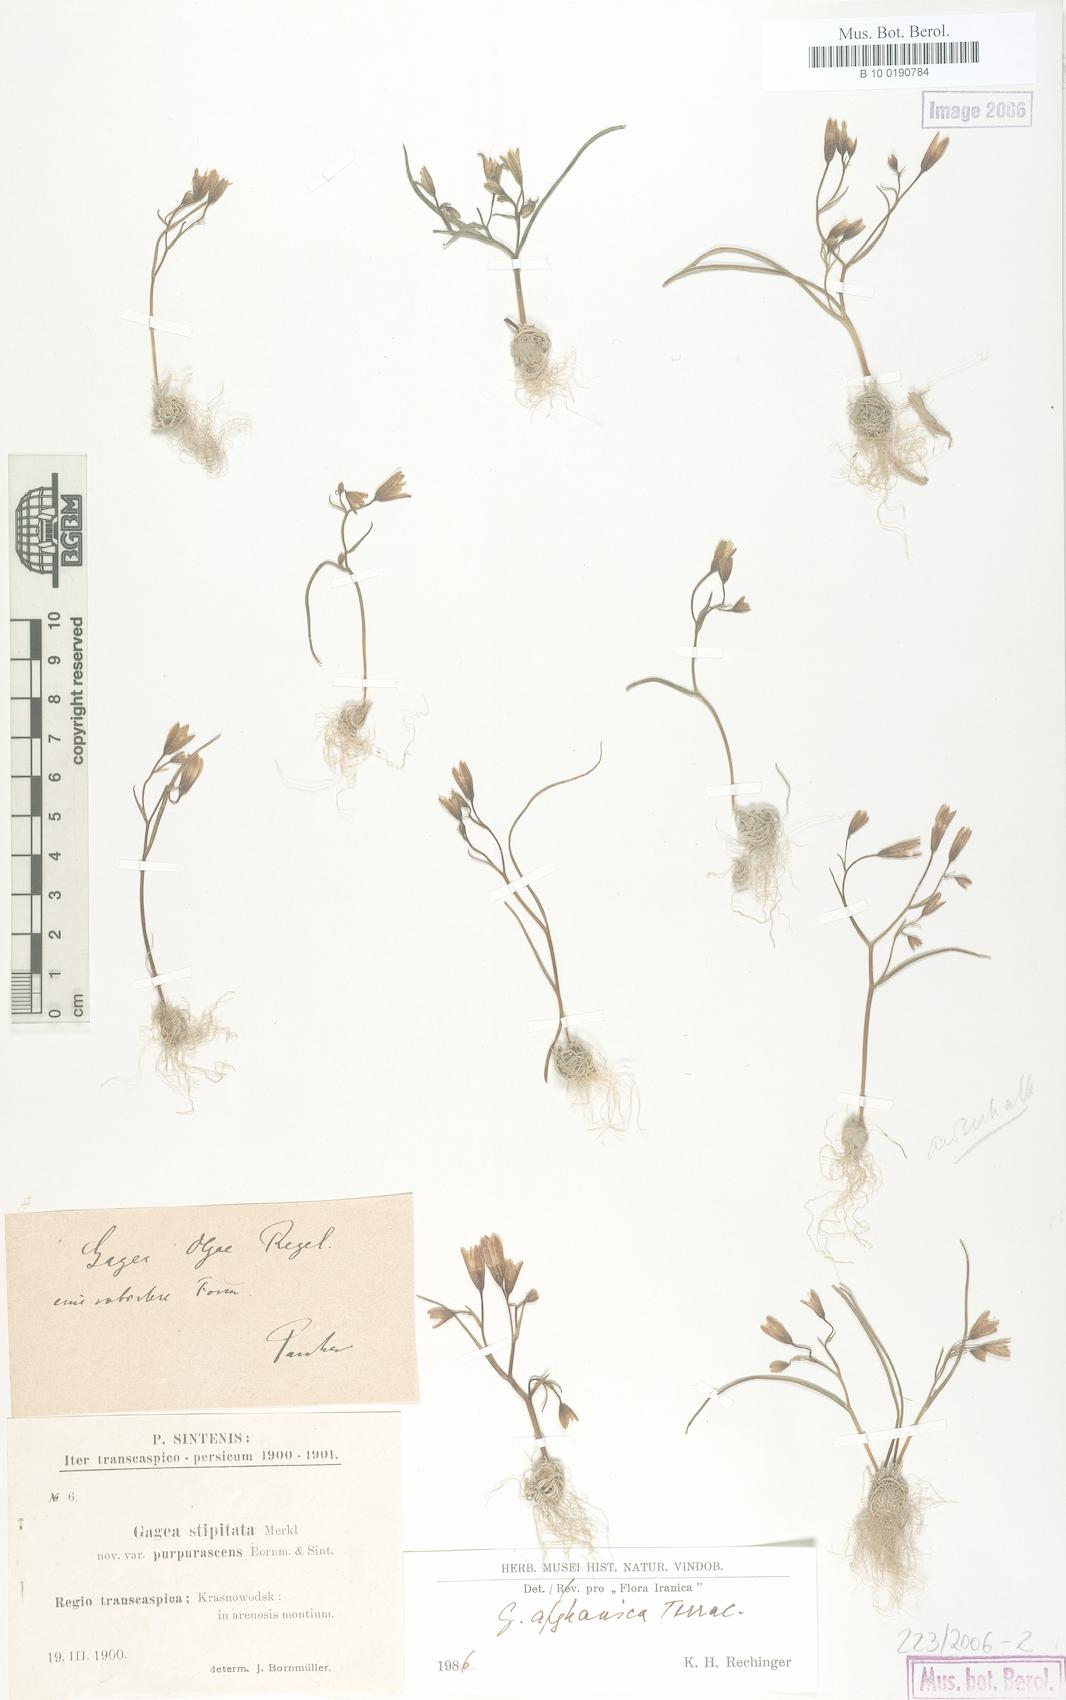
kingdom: Plantae
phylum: Tracheophyta
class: Liliopsida
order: Liliales
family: Liliaceae
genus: Gagea
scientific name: Gagea afghanica
